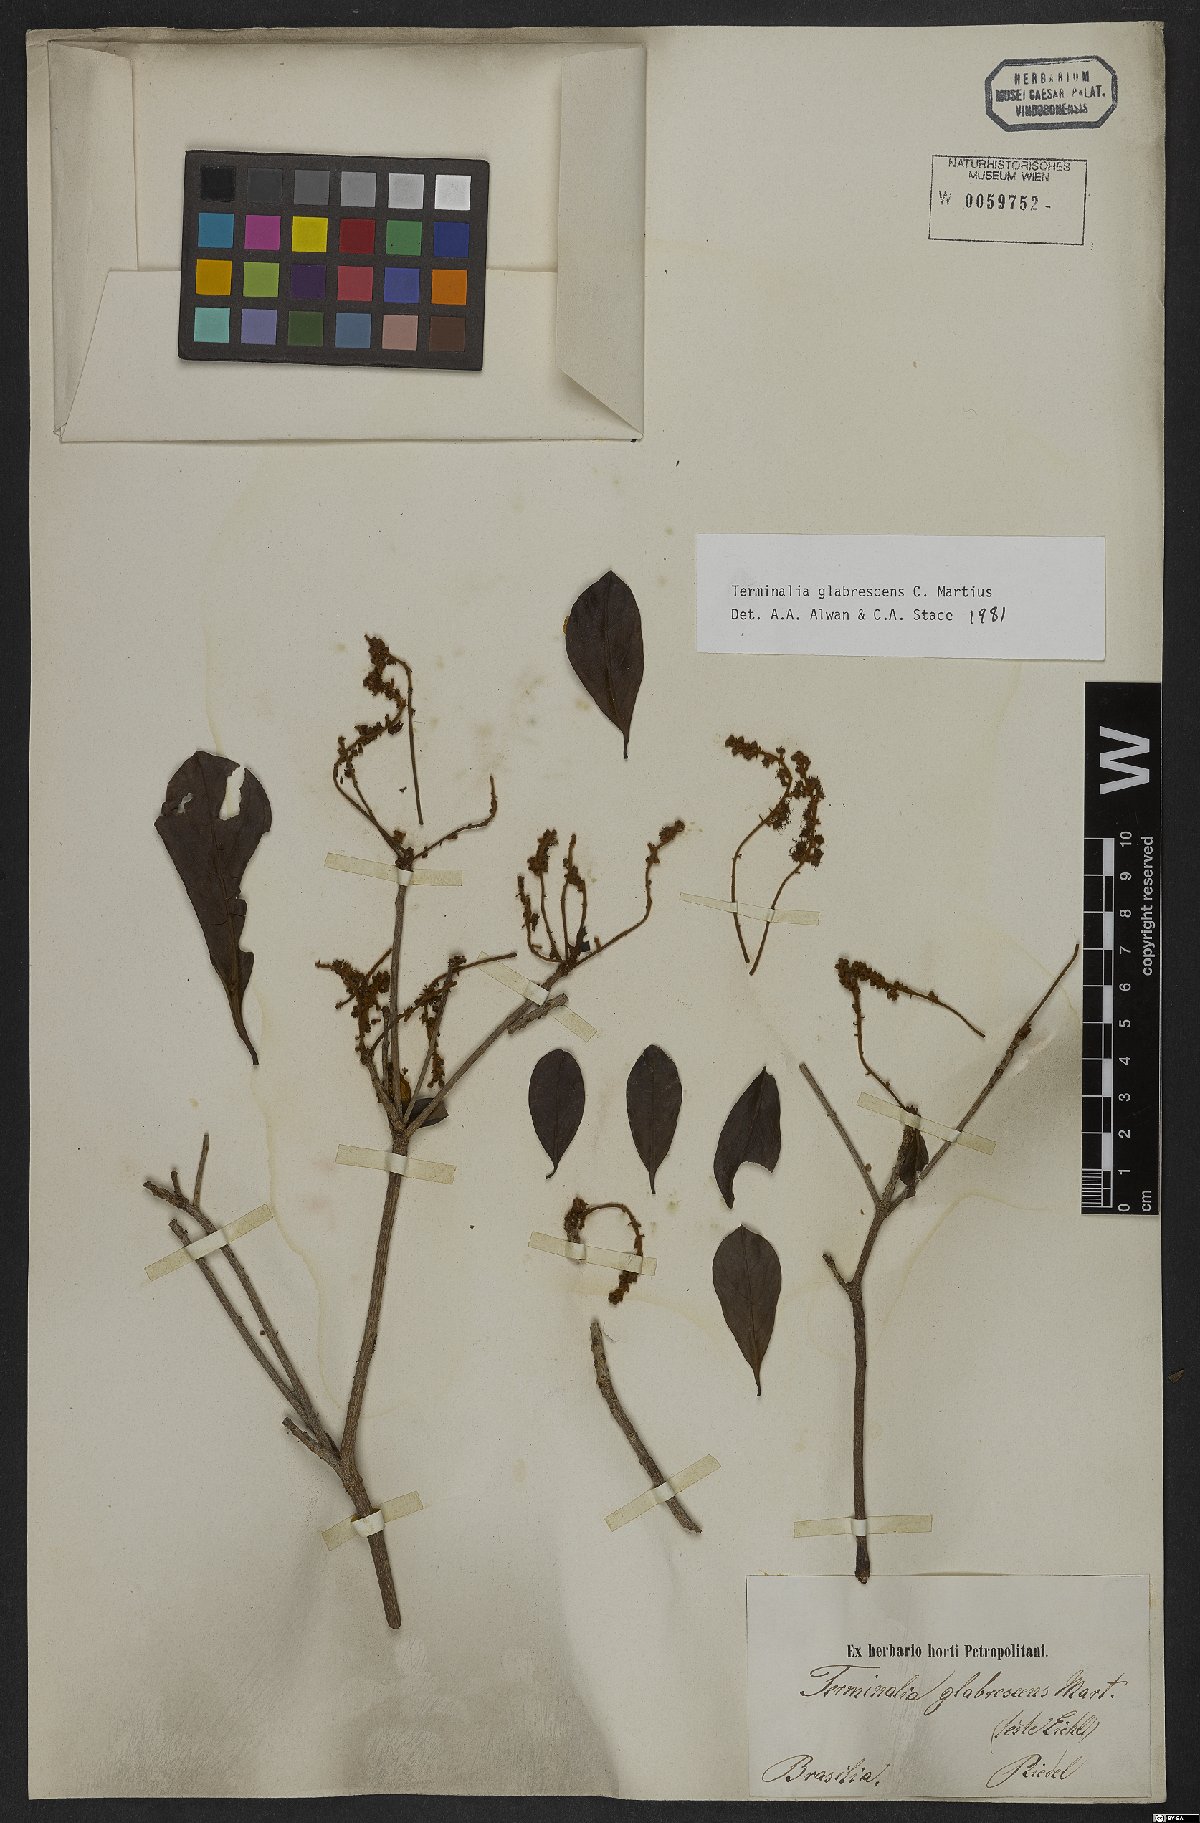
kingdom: Plantae
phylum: Tracheophyta
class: Magnoliopsida
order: Myrtales
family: Combretaceae
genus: Terminalia
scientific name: Terminalia glabrescens
